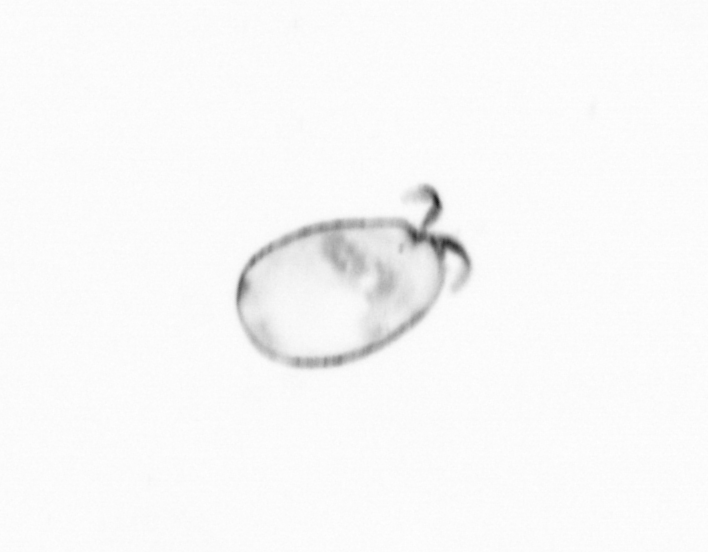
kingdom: Chromista
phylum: Ochrophyta
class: Bacillariophyceae
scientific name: Bacillariophyceae
